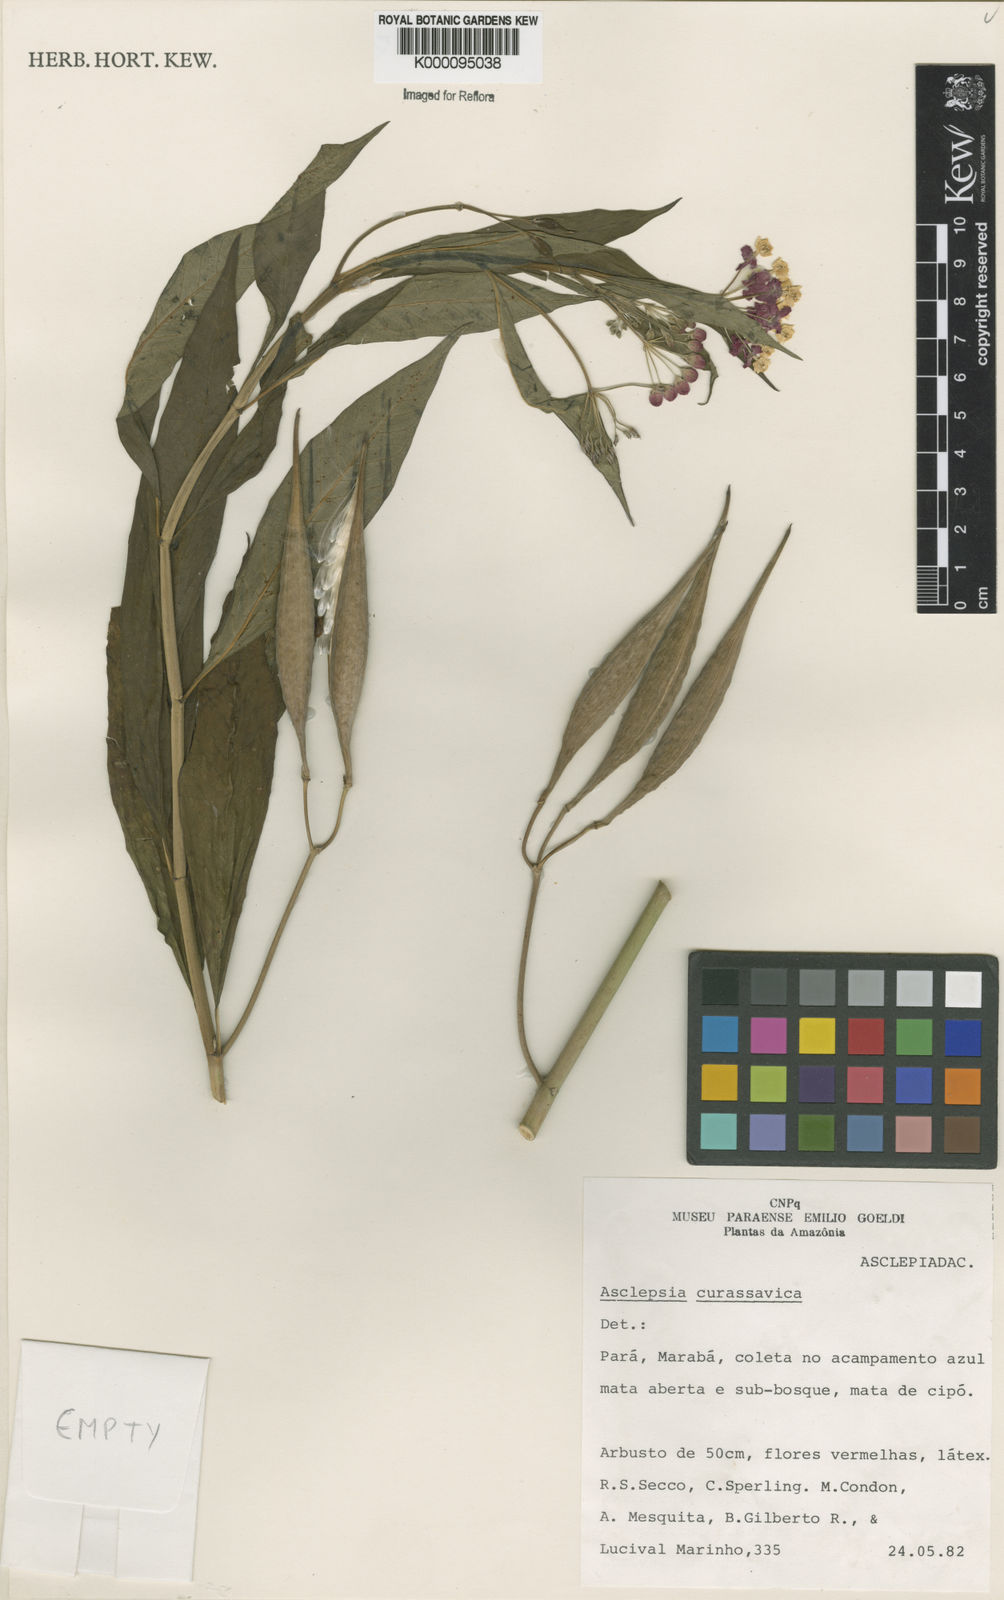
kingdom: Plantae
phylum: Tracheophyta
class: Magnoliopsida
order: Gentianales
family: Apocynaceae
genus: Asclepias
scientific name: Asclepias curassavica
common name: Bloodflower
